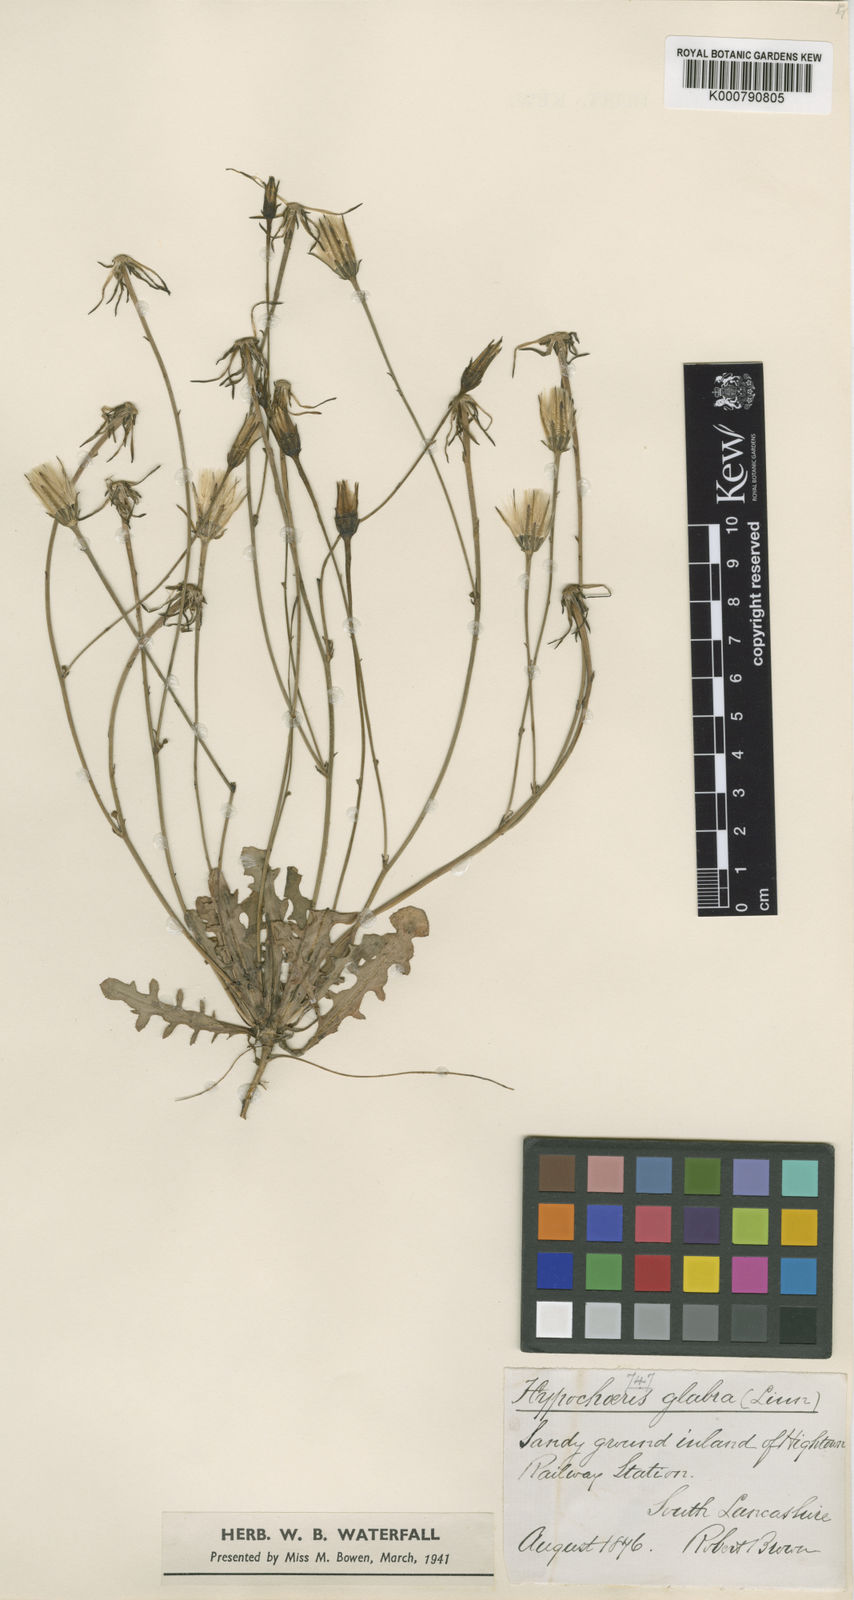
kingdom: Plantae
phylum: Tracheophyta
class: Magnoliopsida
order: Asterales
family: Asteraceae
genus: Hypochaeris
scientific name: Hypochaeris glabra
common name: Smooth catsear
